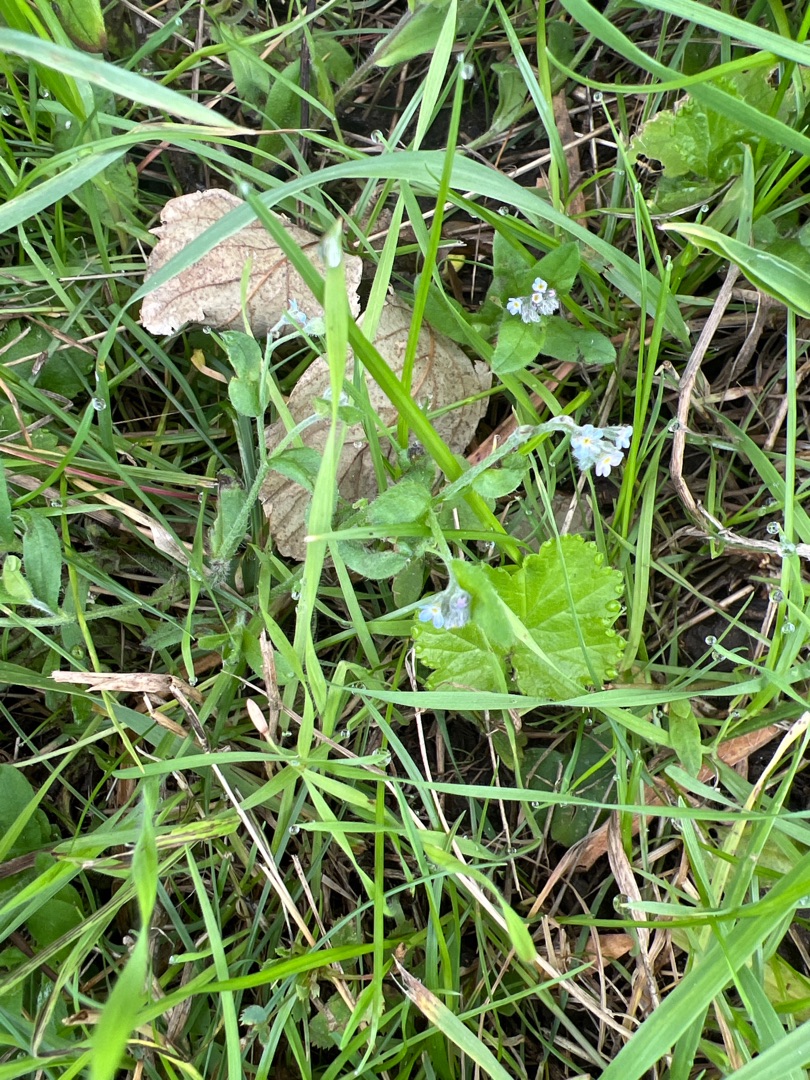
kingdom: Plantae
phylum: Tracheophyta
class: Magnoliopsida
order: Boraginales
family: Boraginaceae
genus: Myosotis
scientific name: Myosotis arvensis
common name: Mark-forglemmigej
